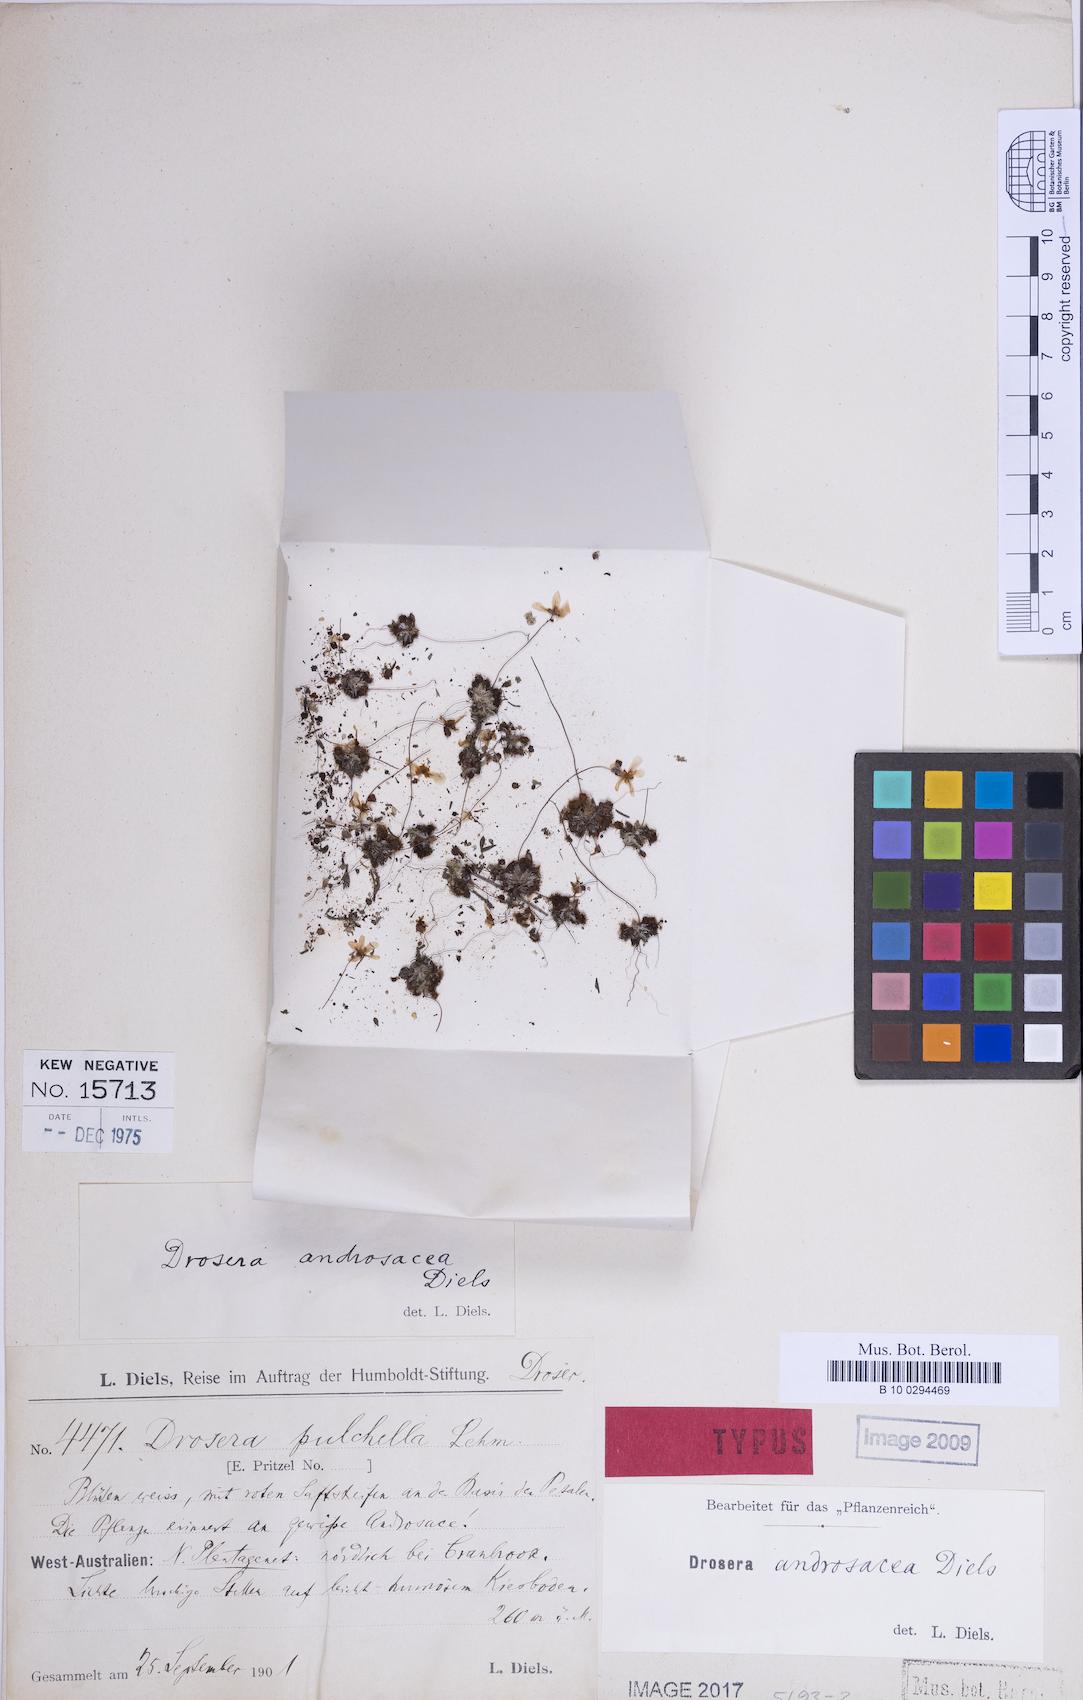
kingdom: Plantae
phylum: Tracheophyta
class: Magnoliopsida
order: Caryophyllales
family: Droseraceae
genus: Drosera
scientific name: Drosera androsacea
